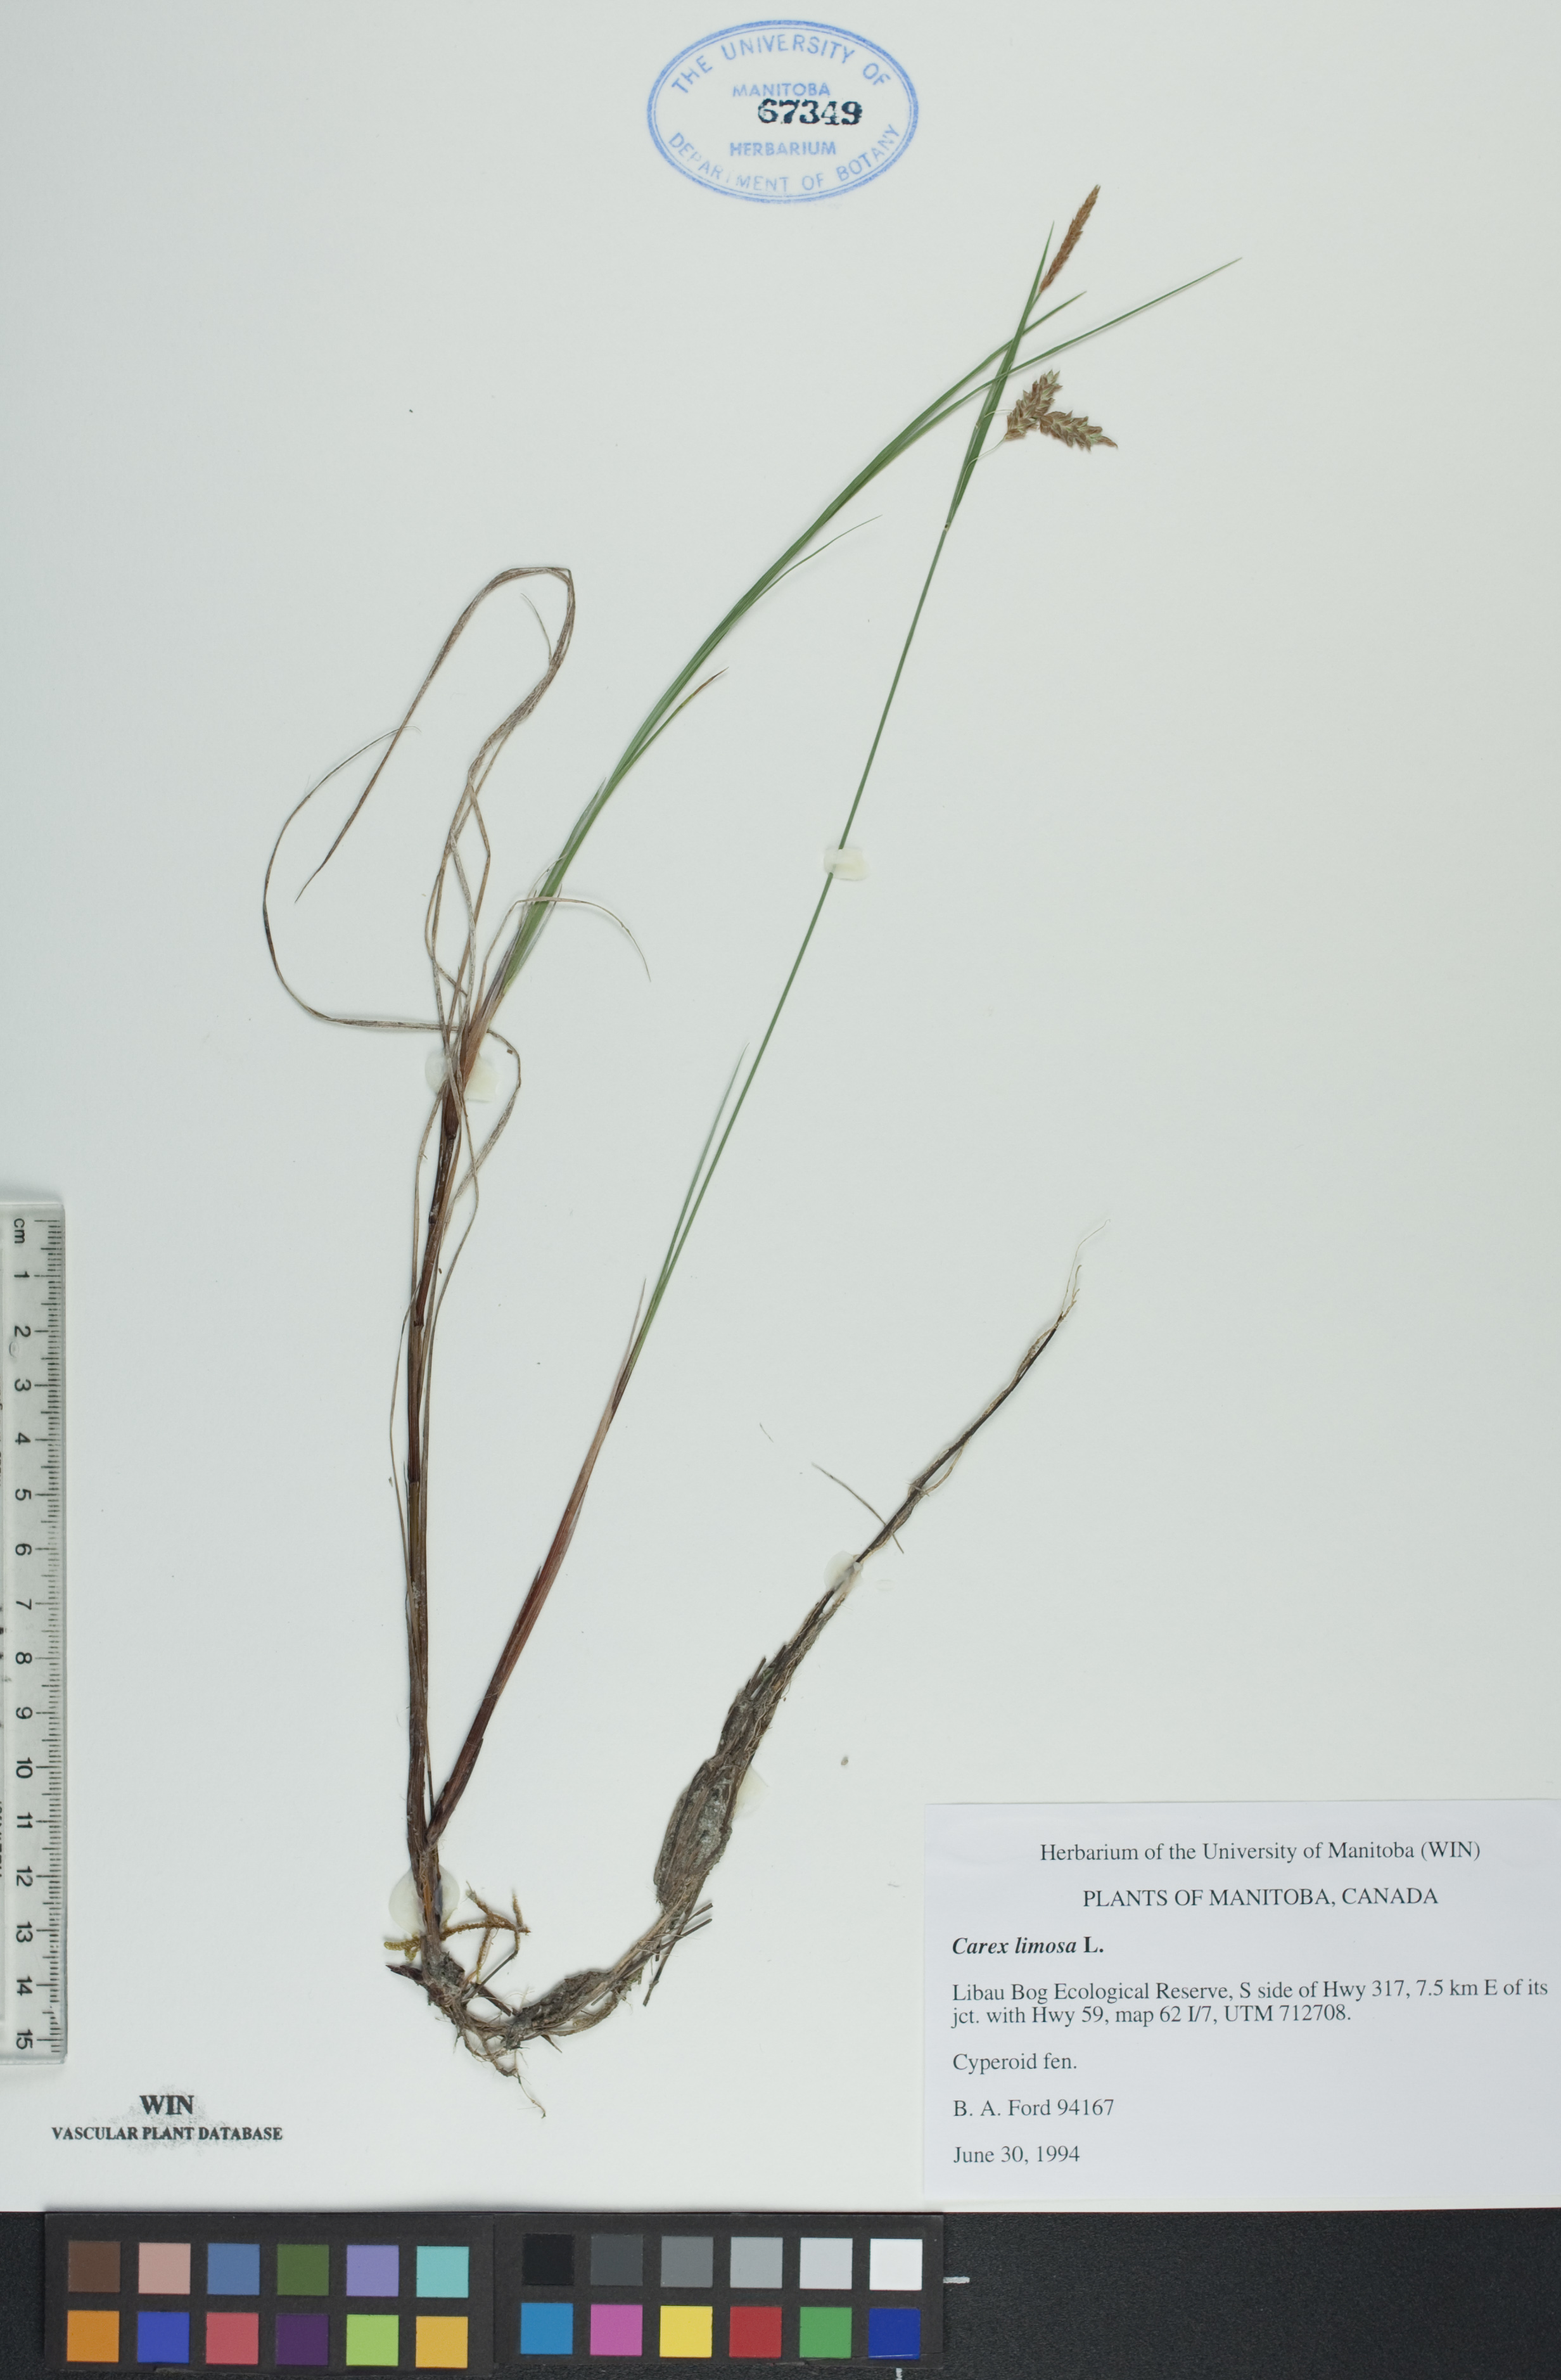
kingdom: Plantae
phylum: Tracheophyta
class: Liliopsida
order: Poales
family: Cyperaceae
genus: Carex
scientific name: Carex limosa
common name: Bog sedge
